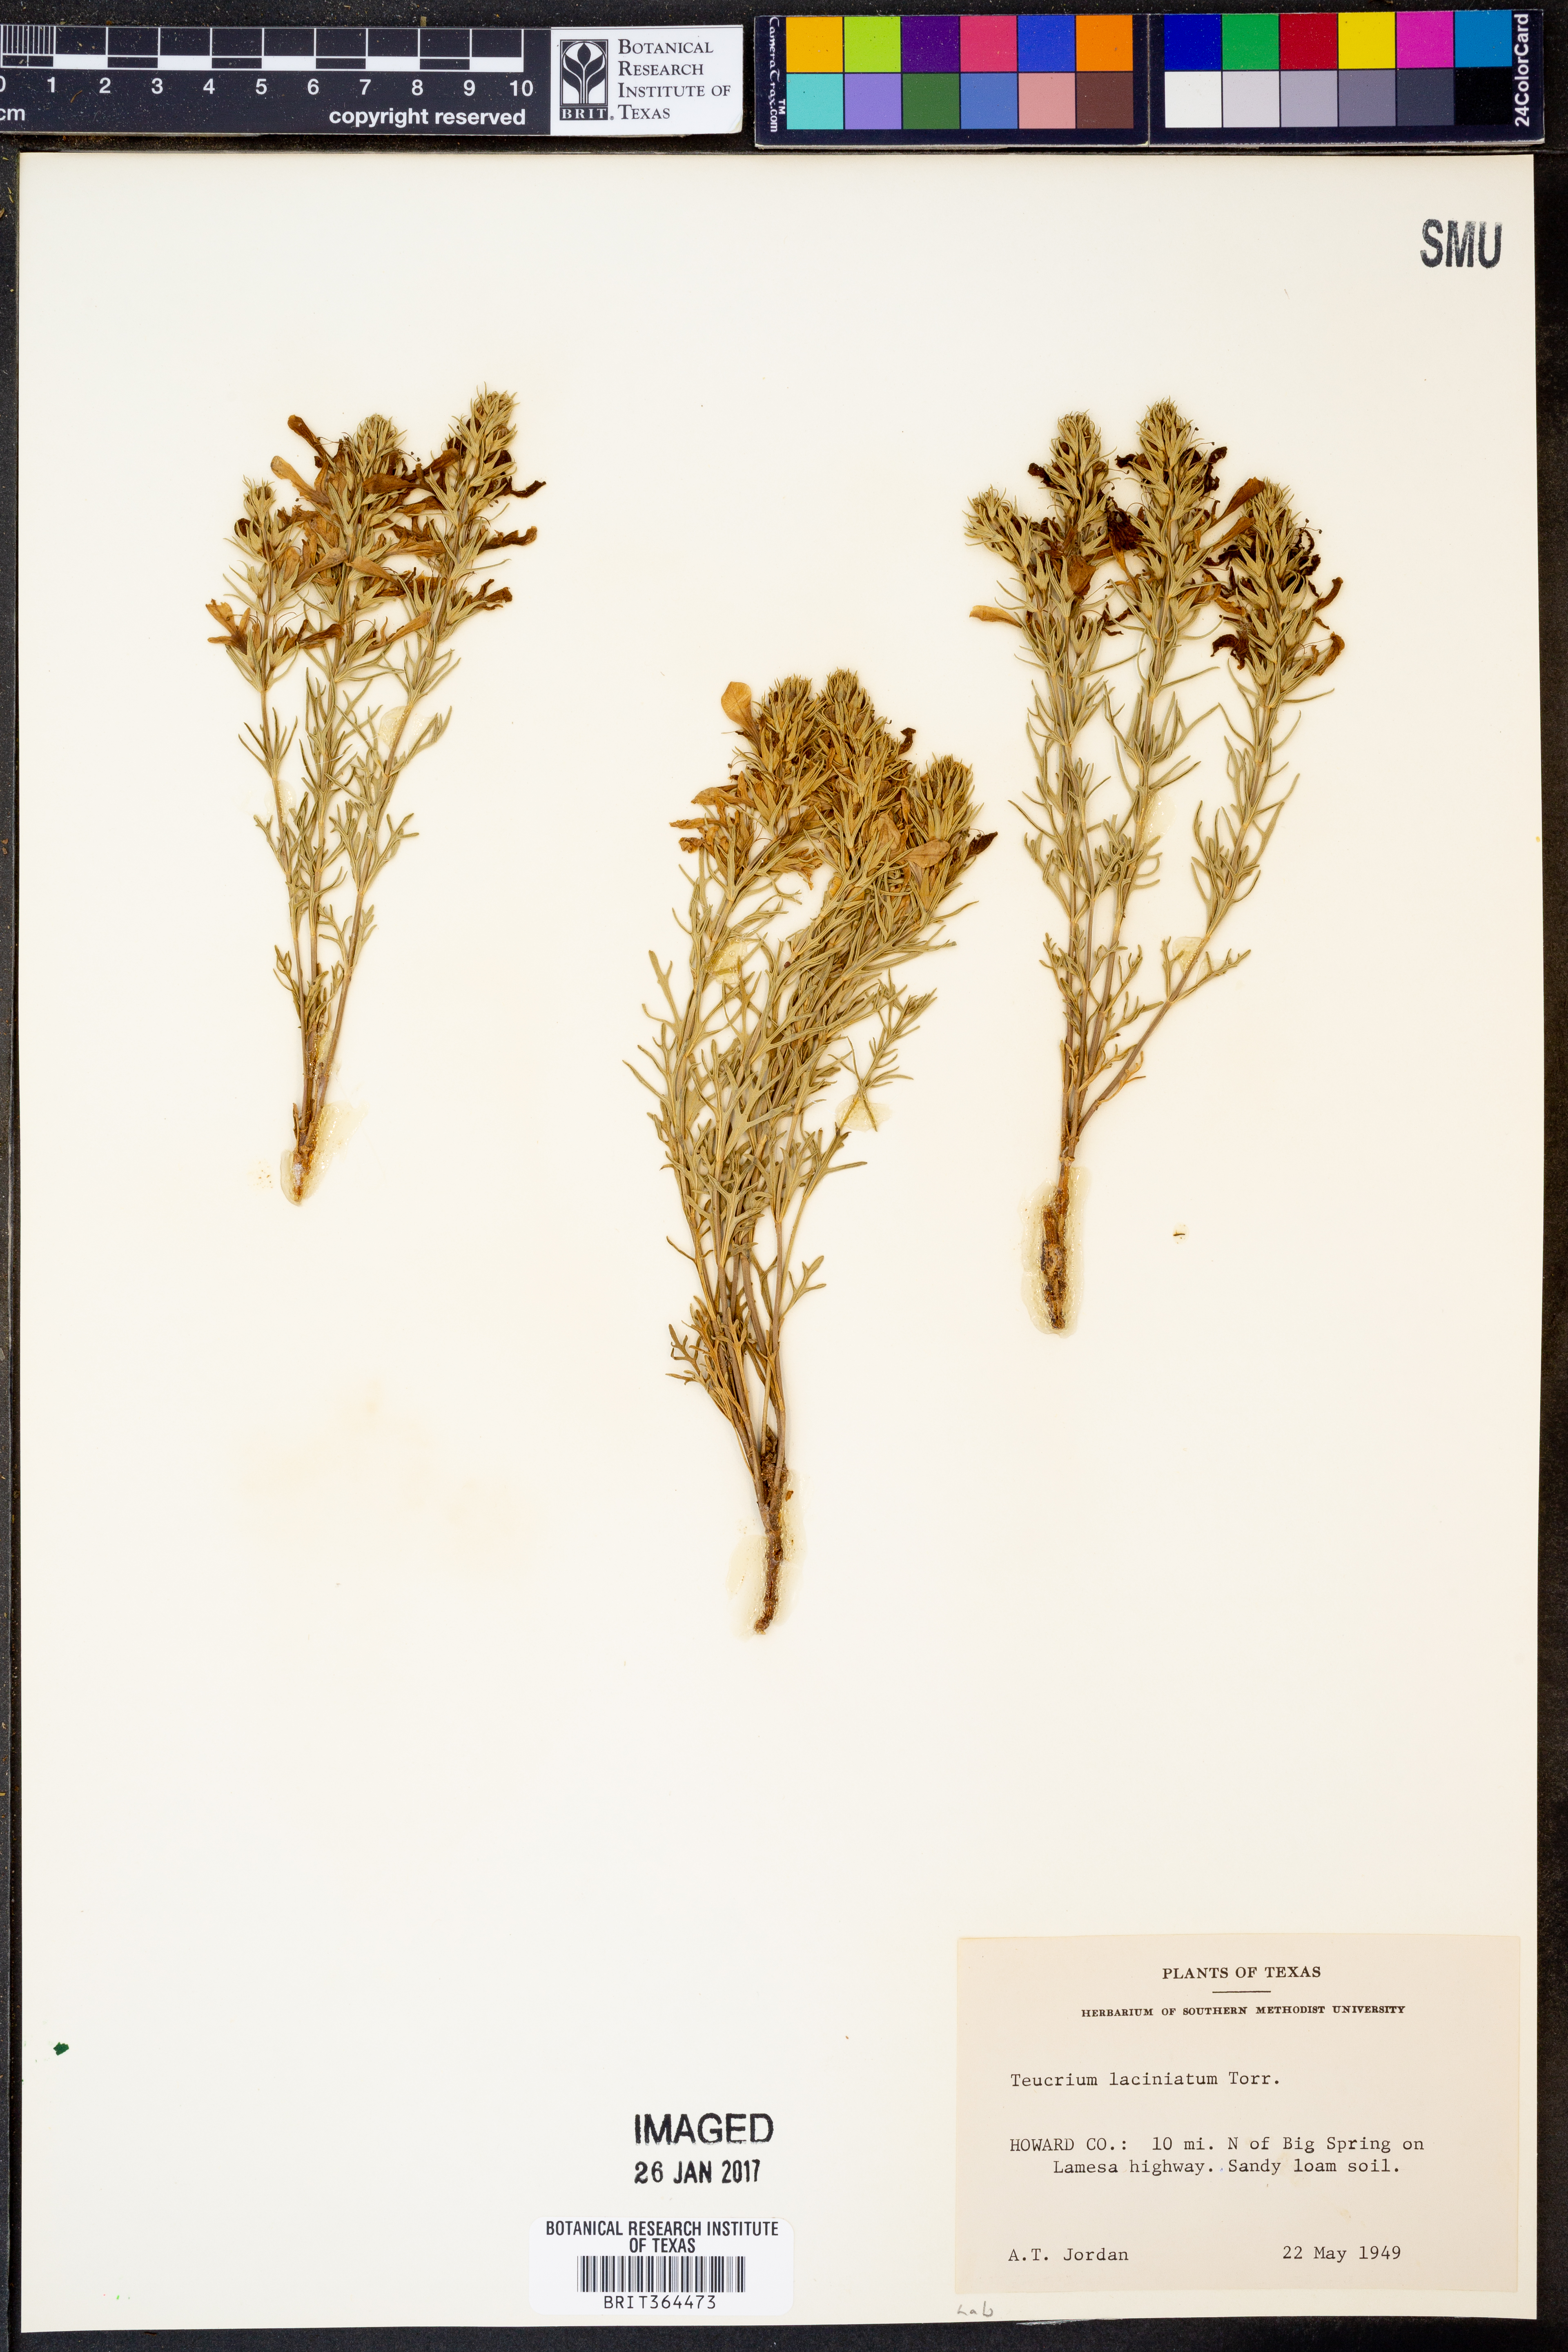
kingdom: Plantae
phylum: Tracheophyta
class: Magnoliopsida
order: Lamiales
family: Lamiaceae
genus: Teucrium
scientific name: Teucrium laciniatum
